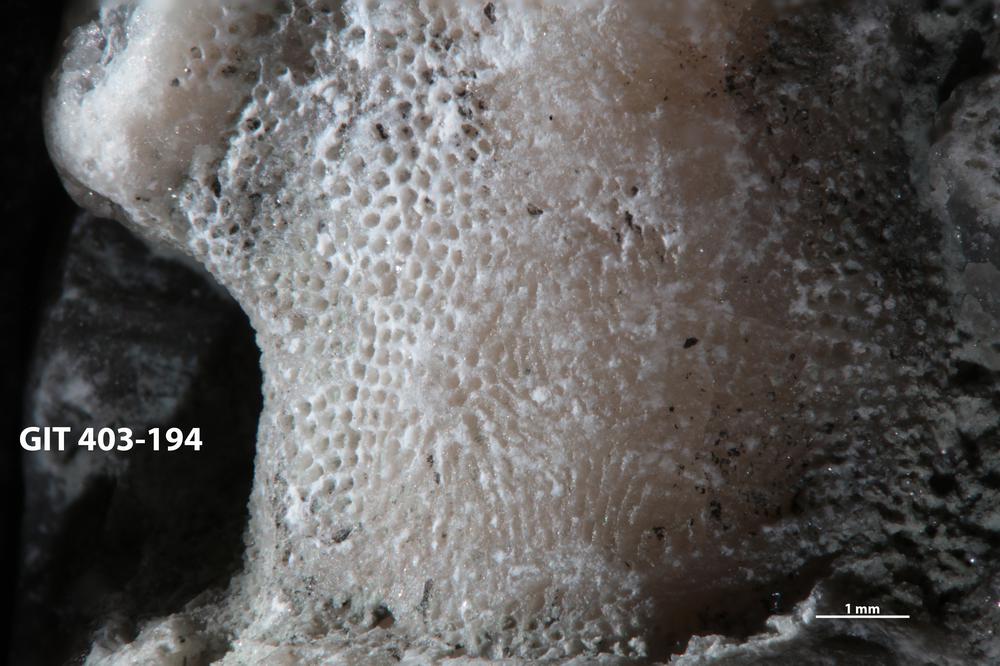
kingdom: Animalia
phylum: Bryozoa
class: Stenolaemata
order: Cystoporida
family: Fistuliporidae
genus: Fistulipora
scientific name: Fistulipora przhidolensis
